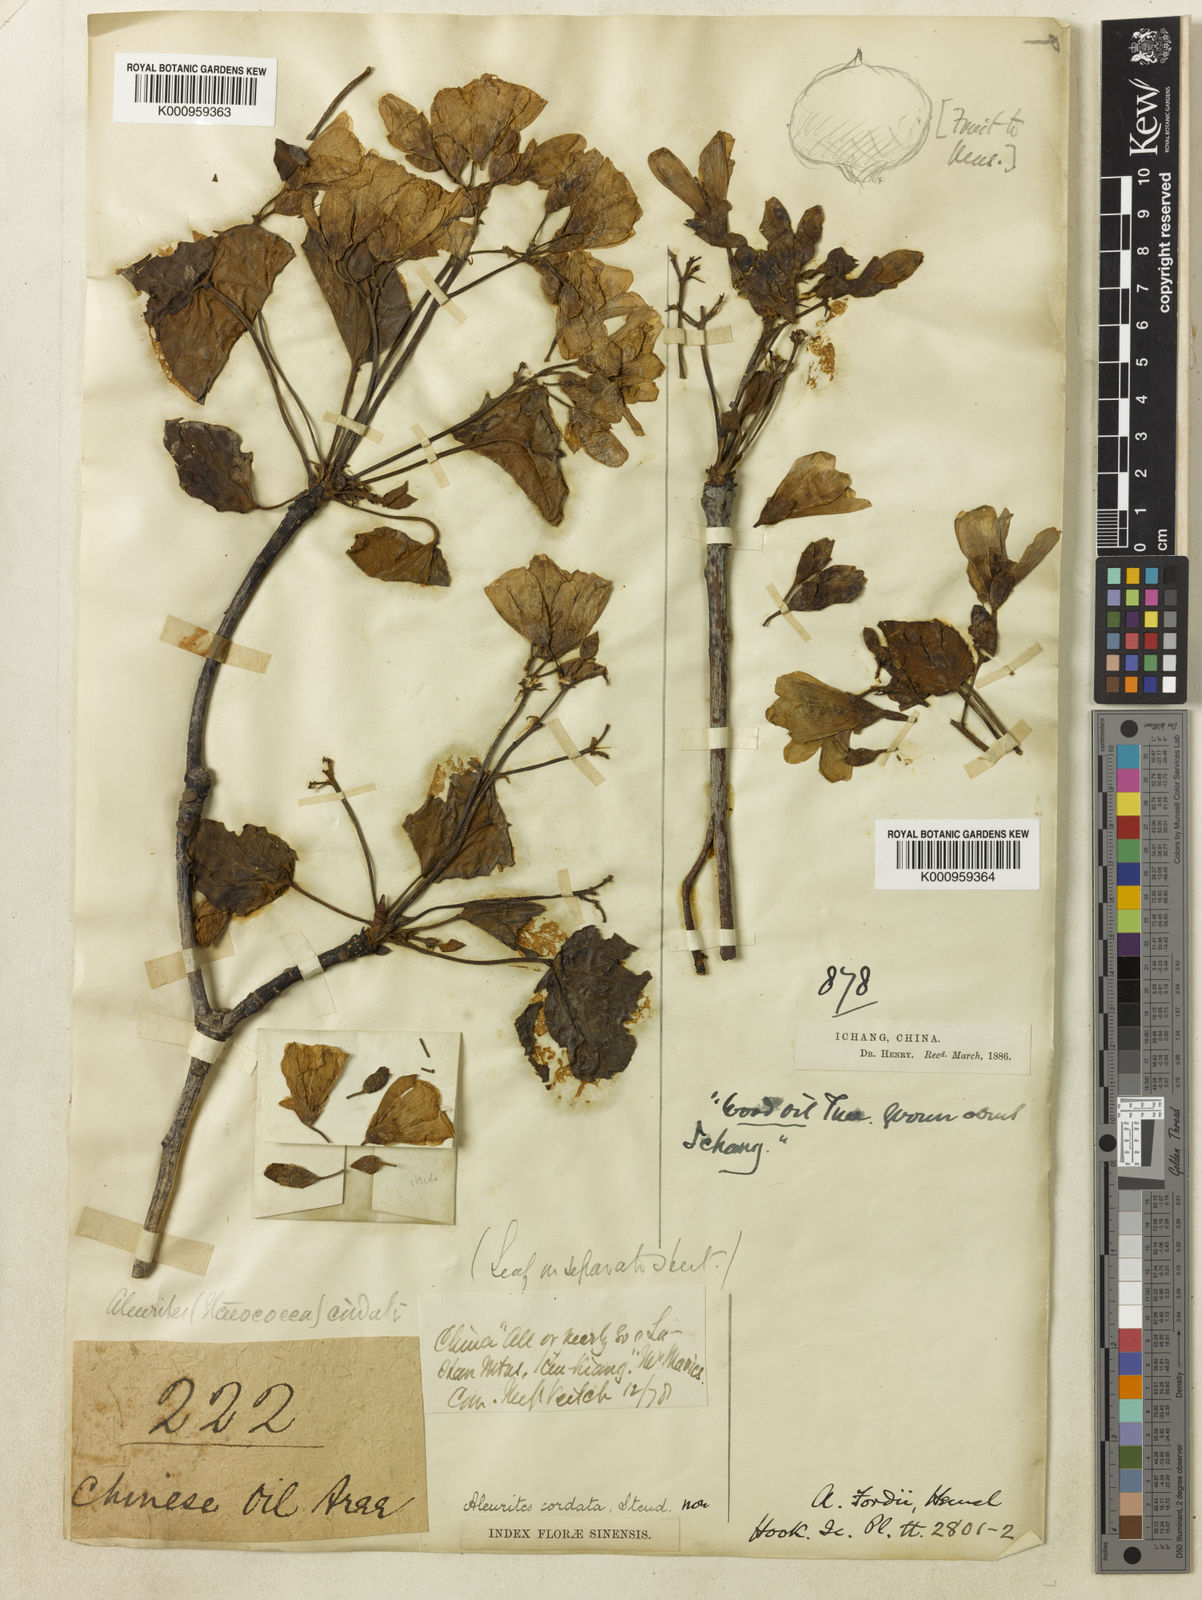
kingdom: Plantae
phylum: Tracheophyta
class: Magnoliopsida
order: Malpighiales
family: Euphorbiaceae
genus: Vernicia
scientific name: Vernicia fordii
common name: Tungoil tree
